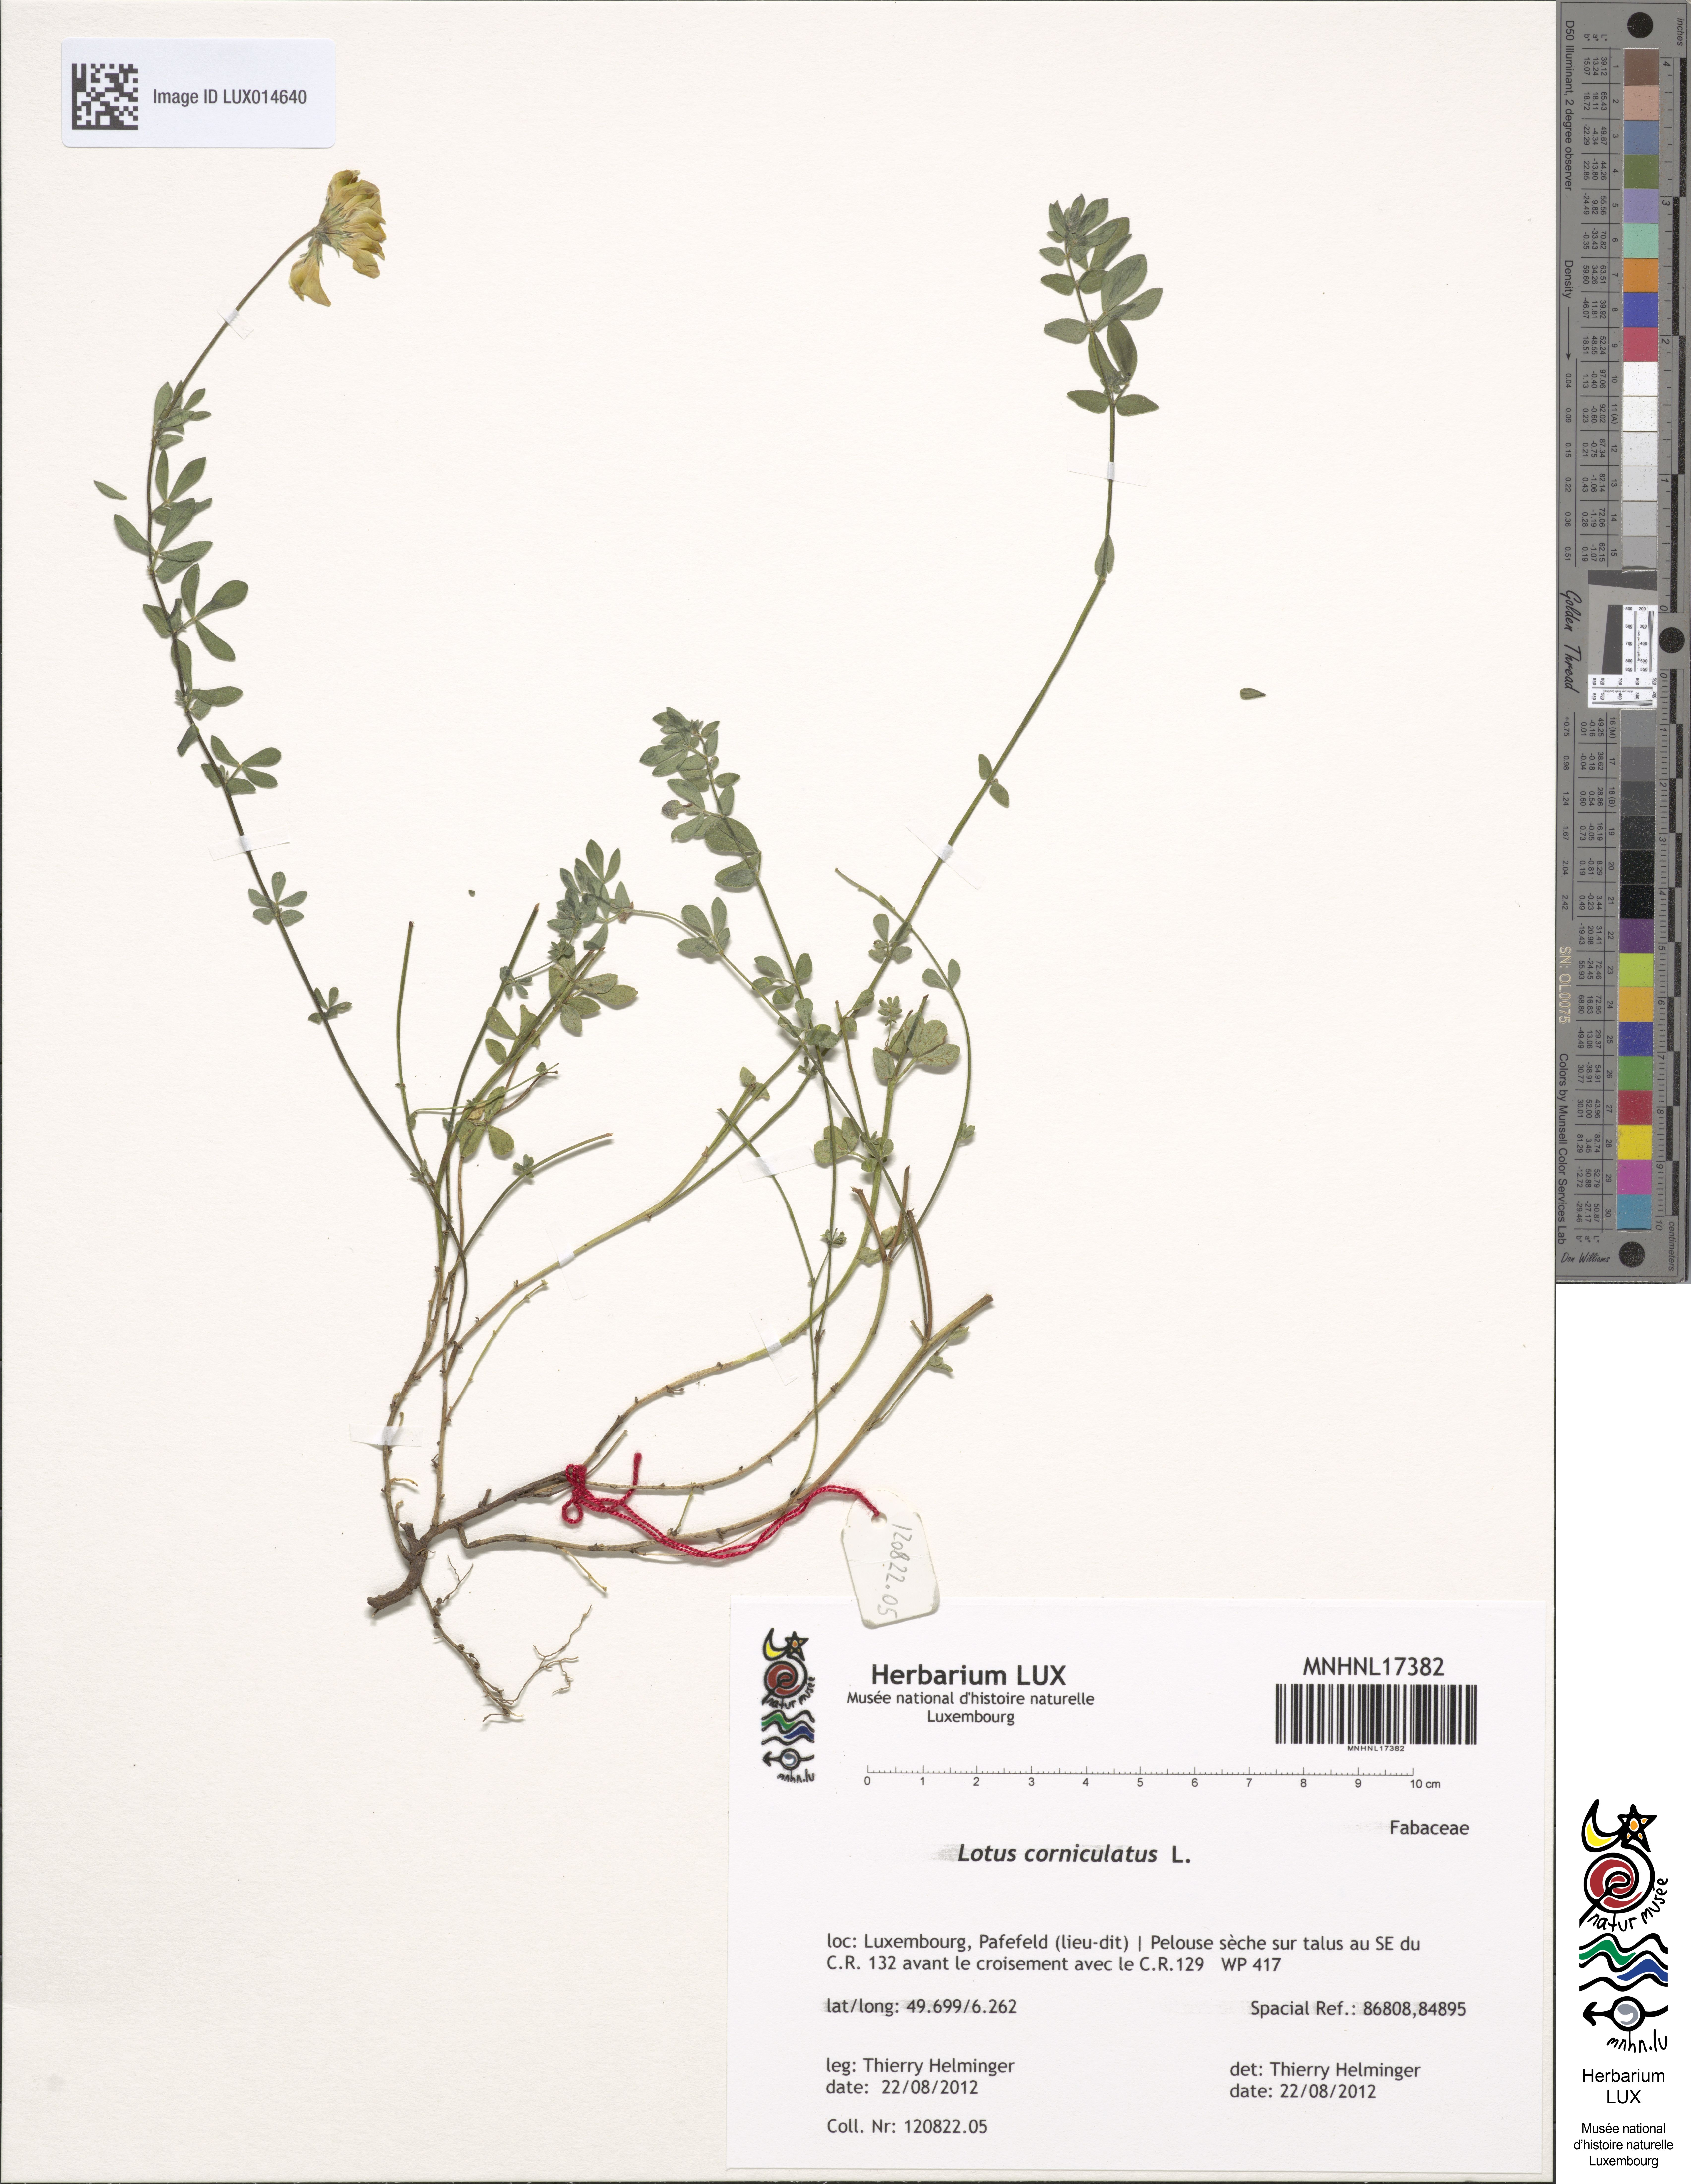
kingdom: Plantae
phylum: Tracheophyta
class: Magnoliopsida
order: Fabales
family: Fabaceae
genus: Lotus
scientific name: Lotus corniculatus
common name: Common bird's-foot-trefoil
